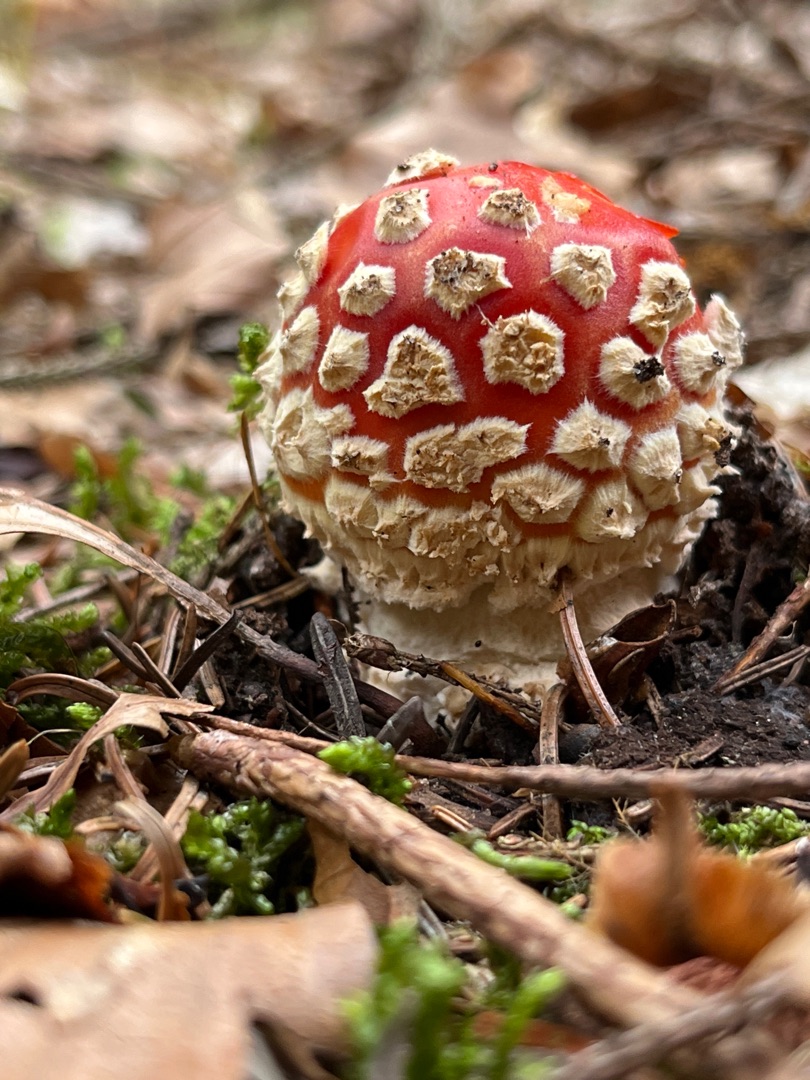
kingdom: Fungi
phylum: Basidiomycota
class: Agaricomycetes
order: Agaricales
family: Amanitaceae
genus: Amanita
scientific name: Amanita muscaria
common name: Rød fluesvamp
